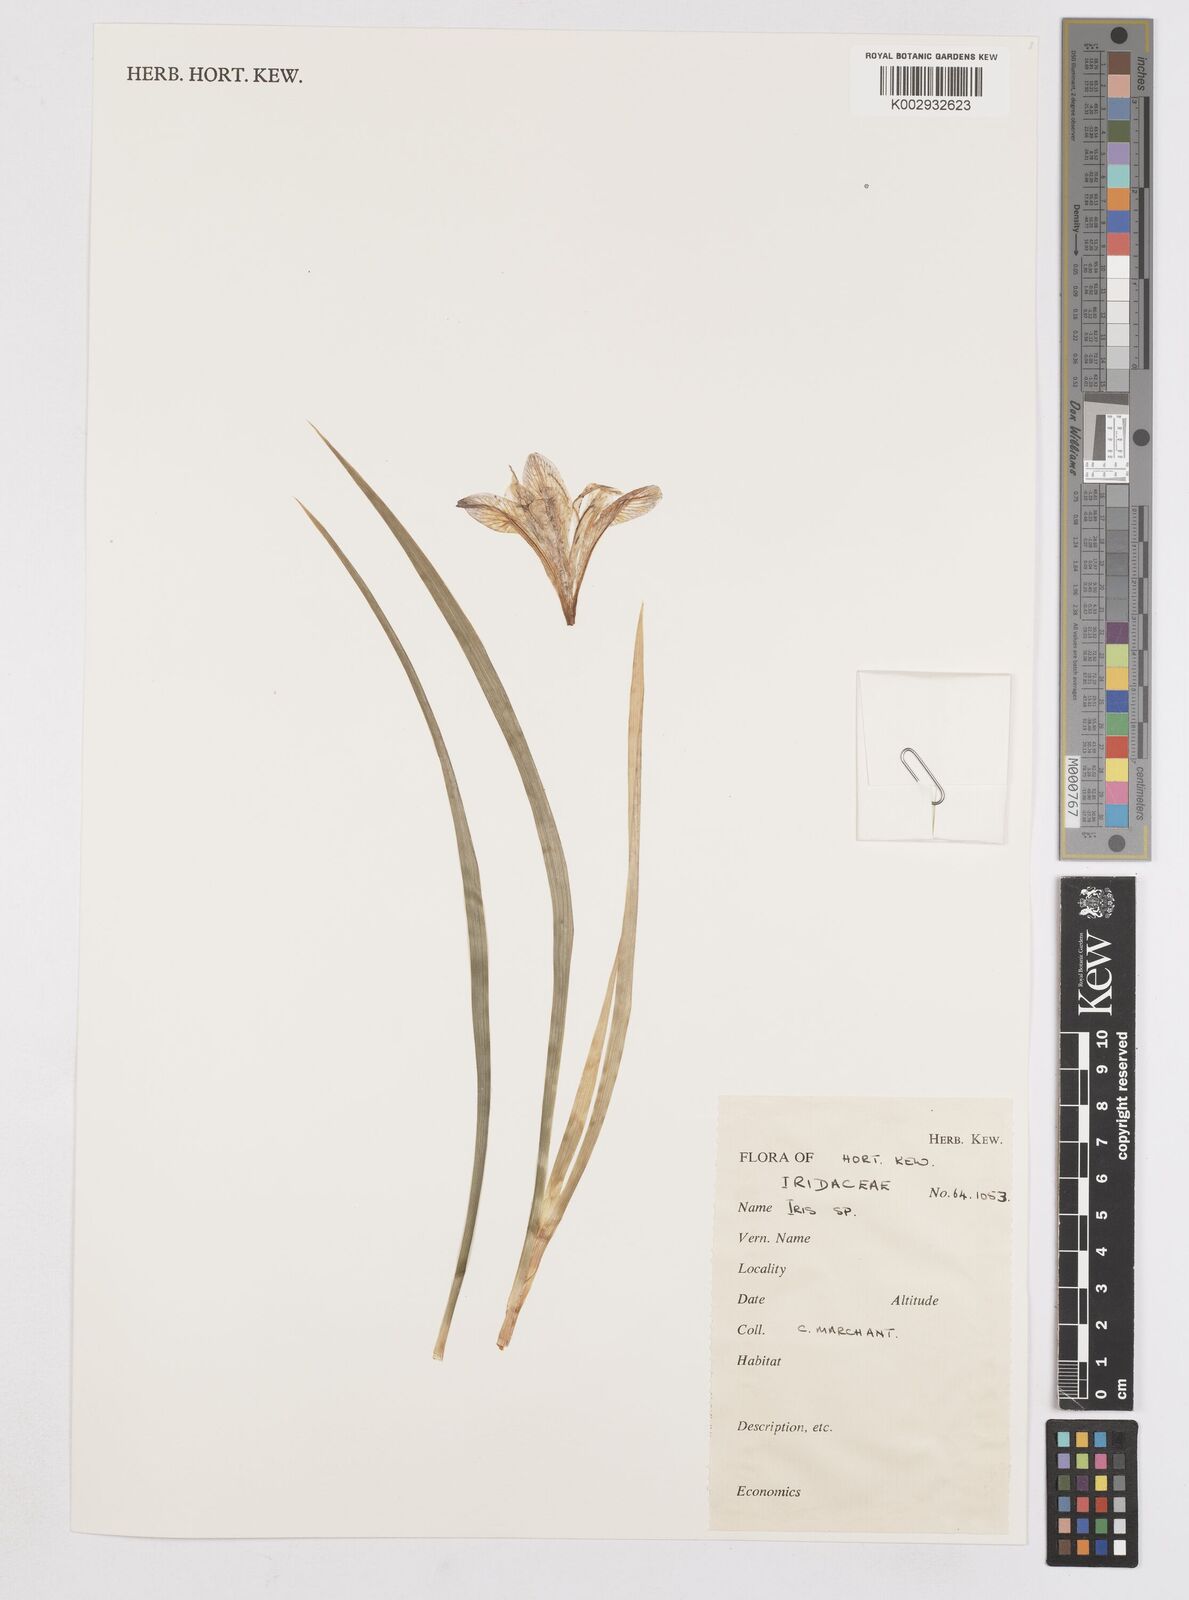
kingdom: Plantae
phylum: Tracheophyta
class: Liliopsida
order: Asparagales
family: Iridaceae
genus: Iris
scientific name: Iris
